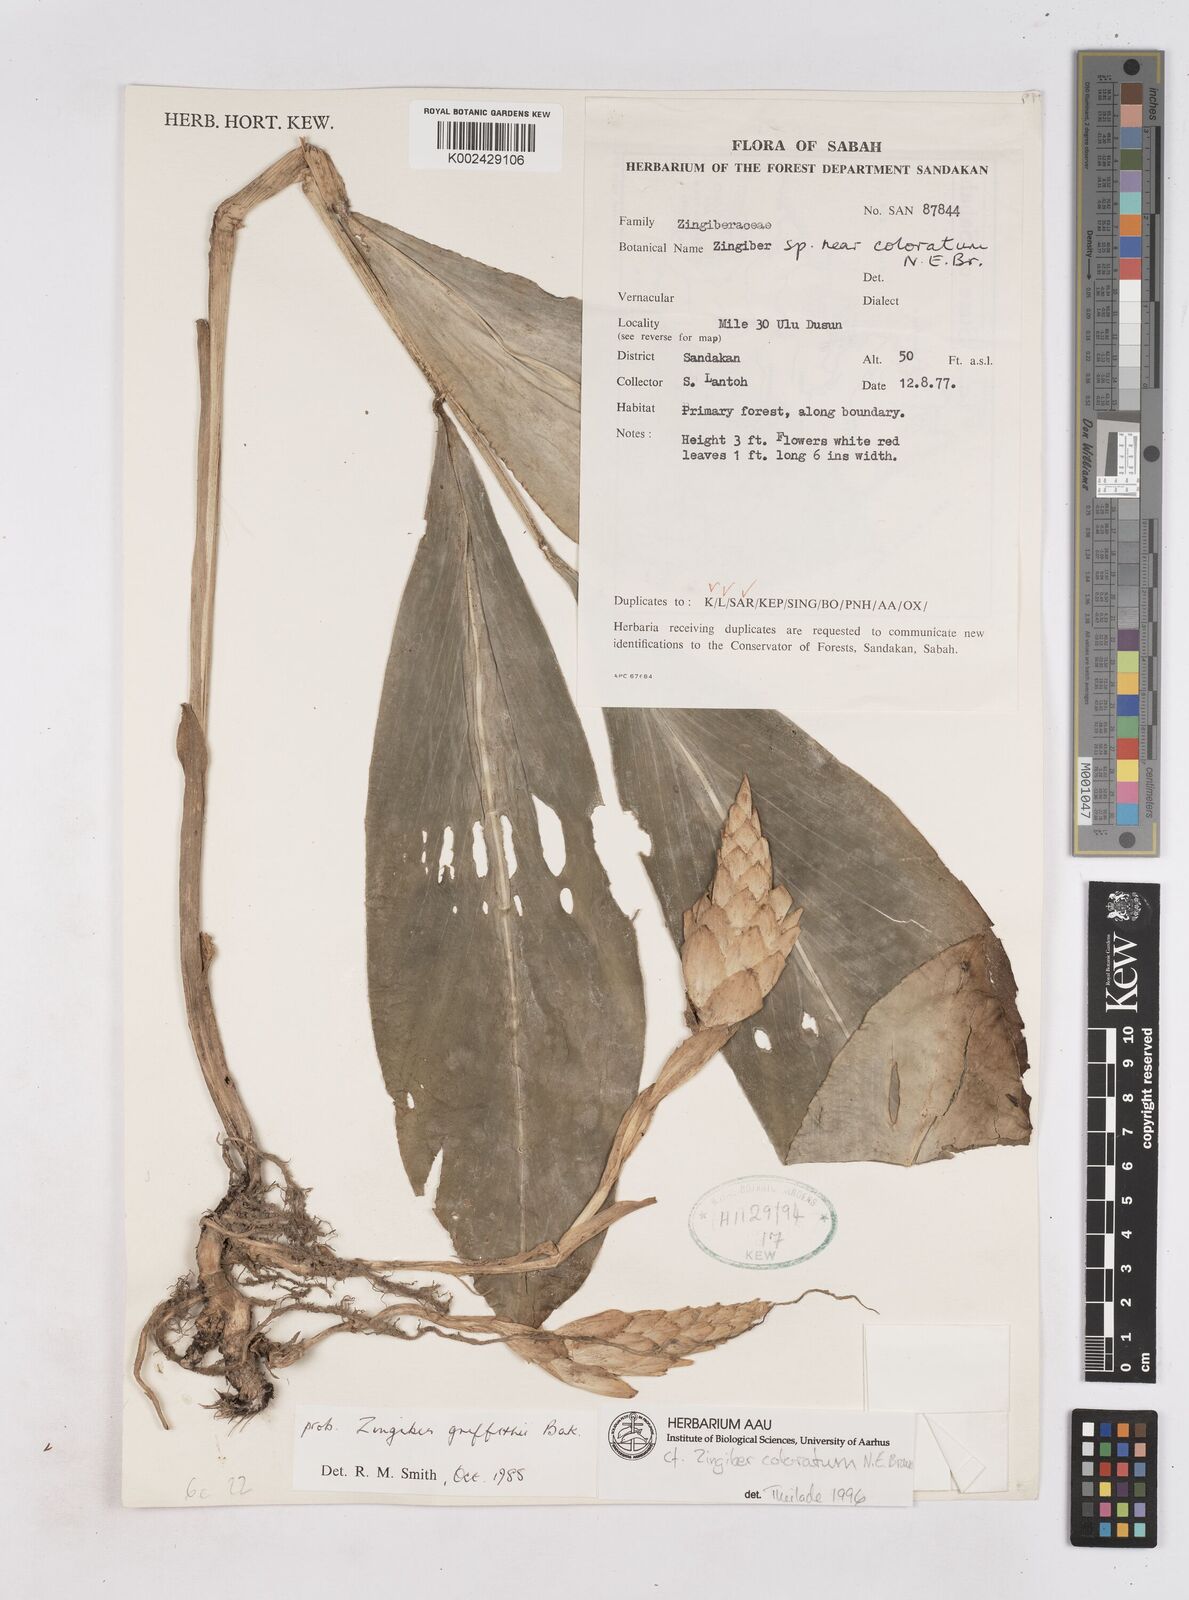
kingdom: Plantae
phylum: Tracheophyta
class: Liliopsida
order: Zingiberales
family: Zingiberaceae
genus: Zingiber
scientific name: Zingiber coloratum
